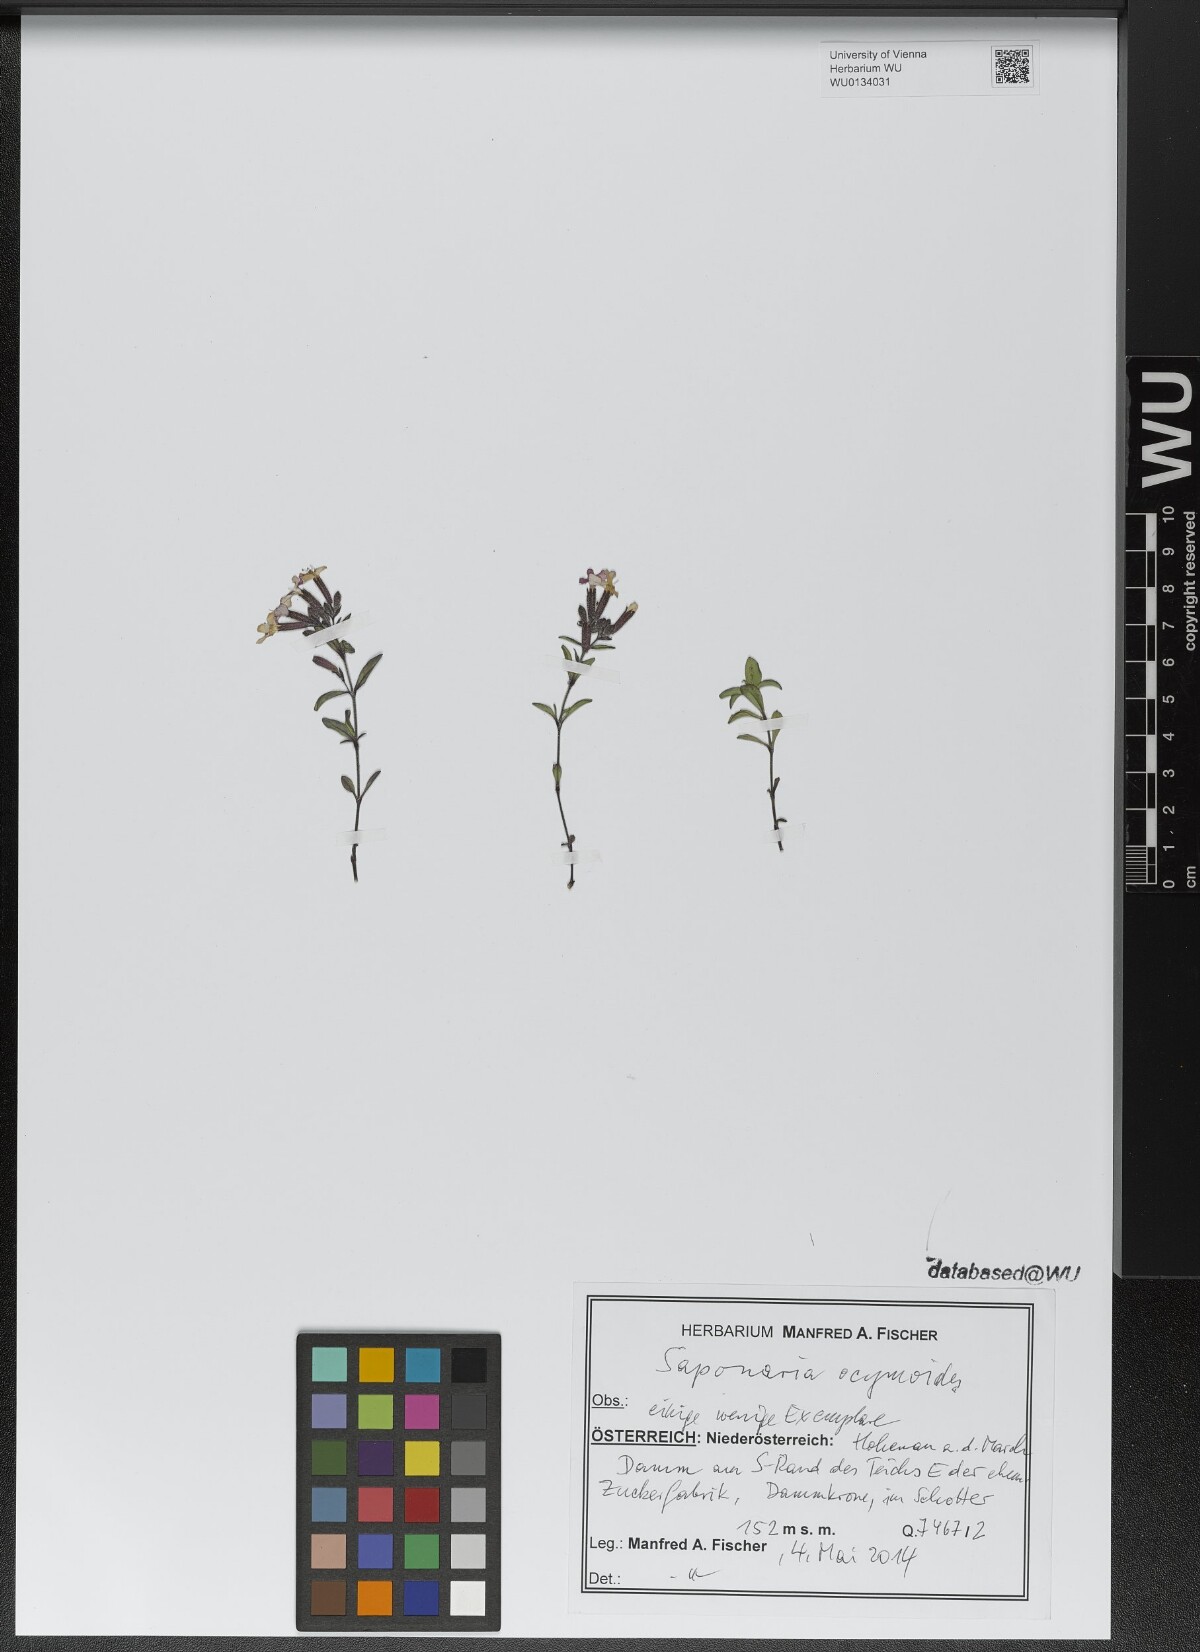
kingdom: Plantae
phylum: Tracheophyta
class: Magnoliopsida
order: Caryophyllales
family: Caryophyllaceae
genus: Saponaria
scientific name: Saponaria ocymoides
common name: Rock soapwort
